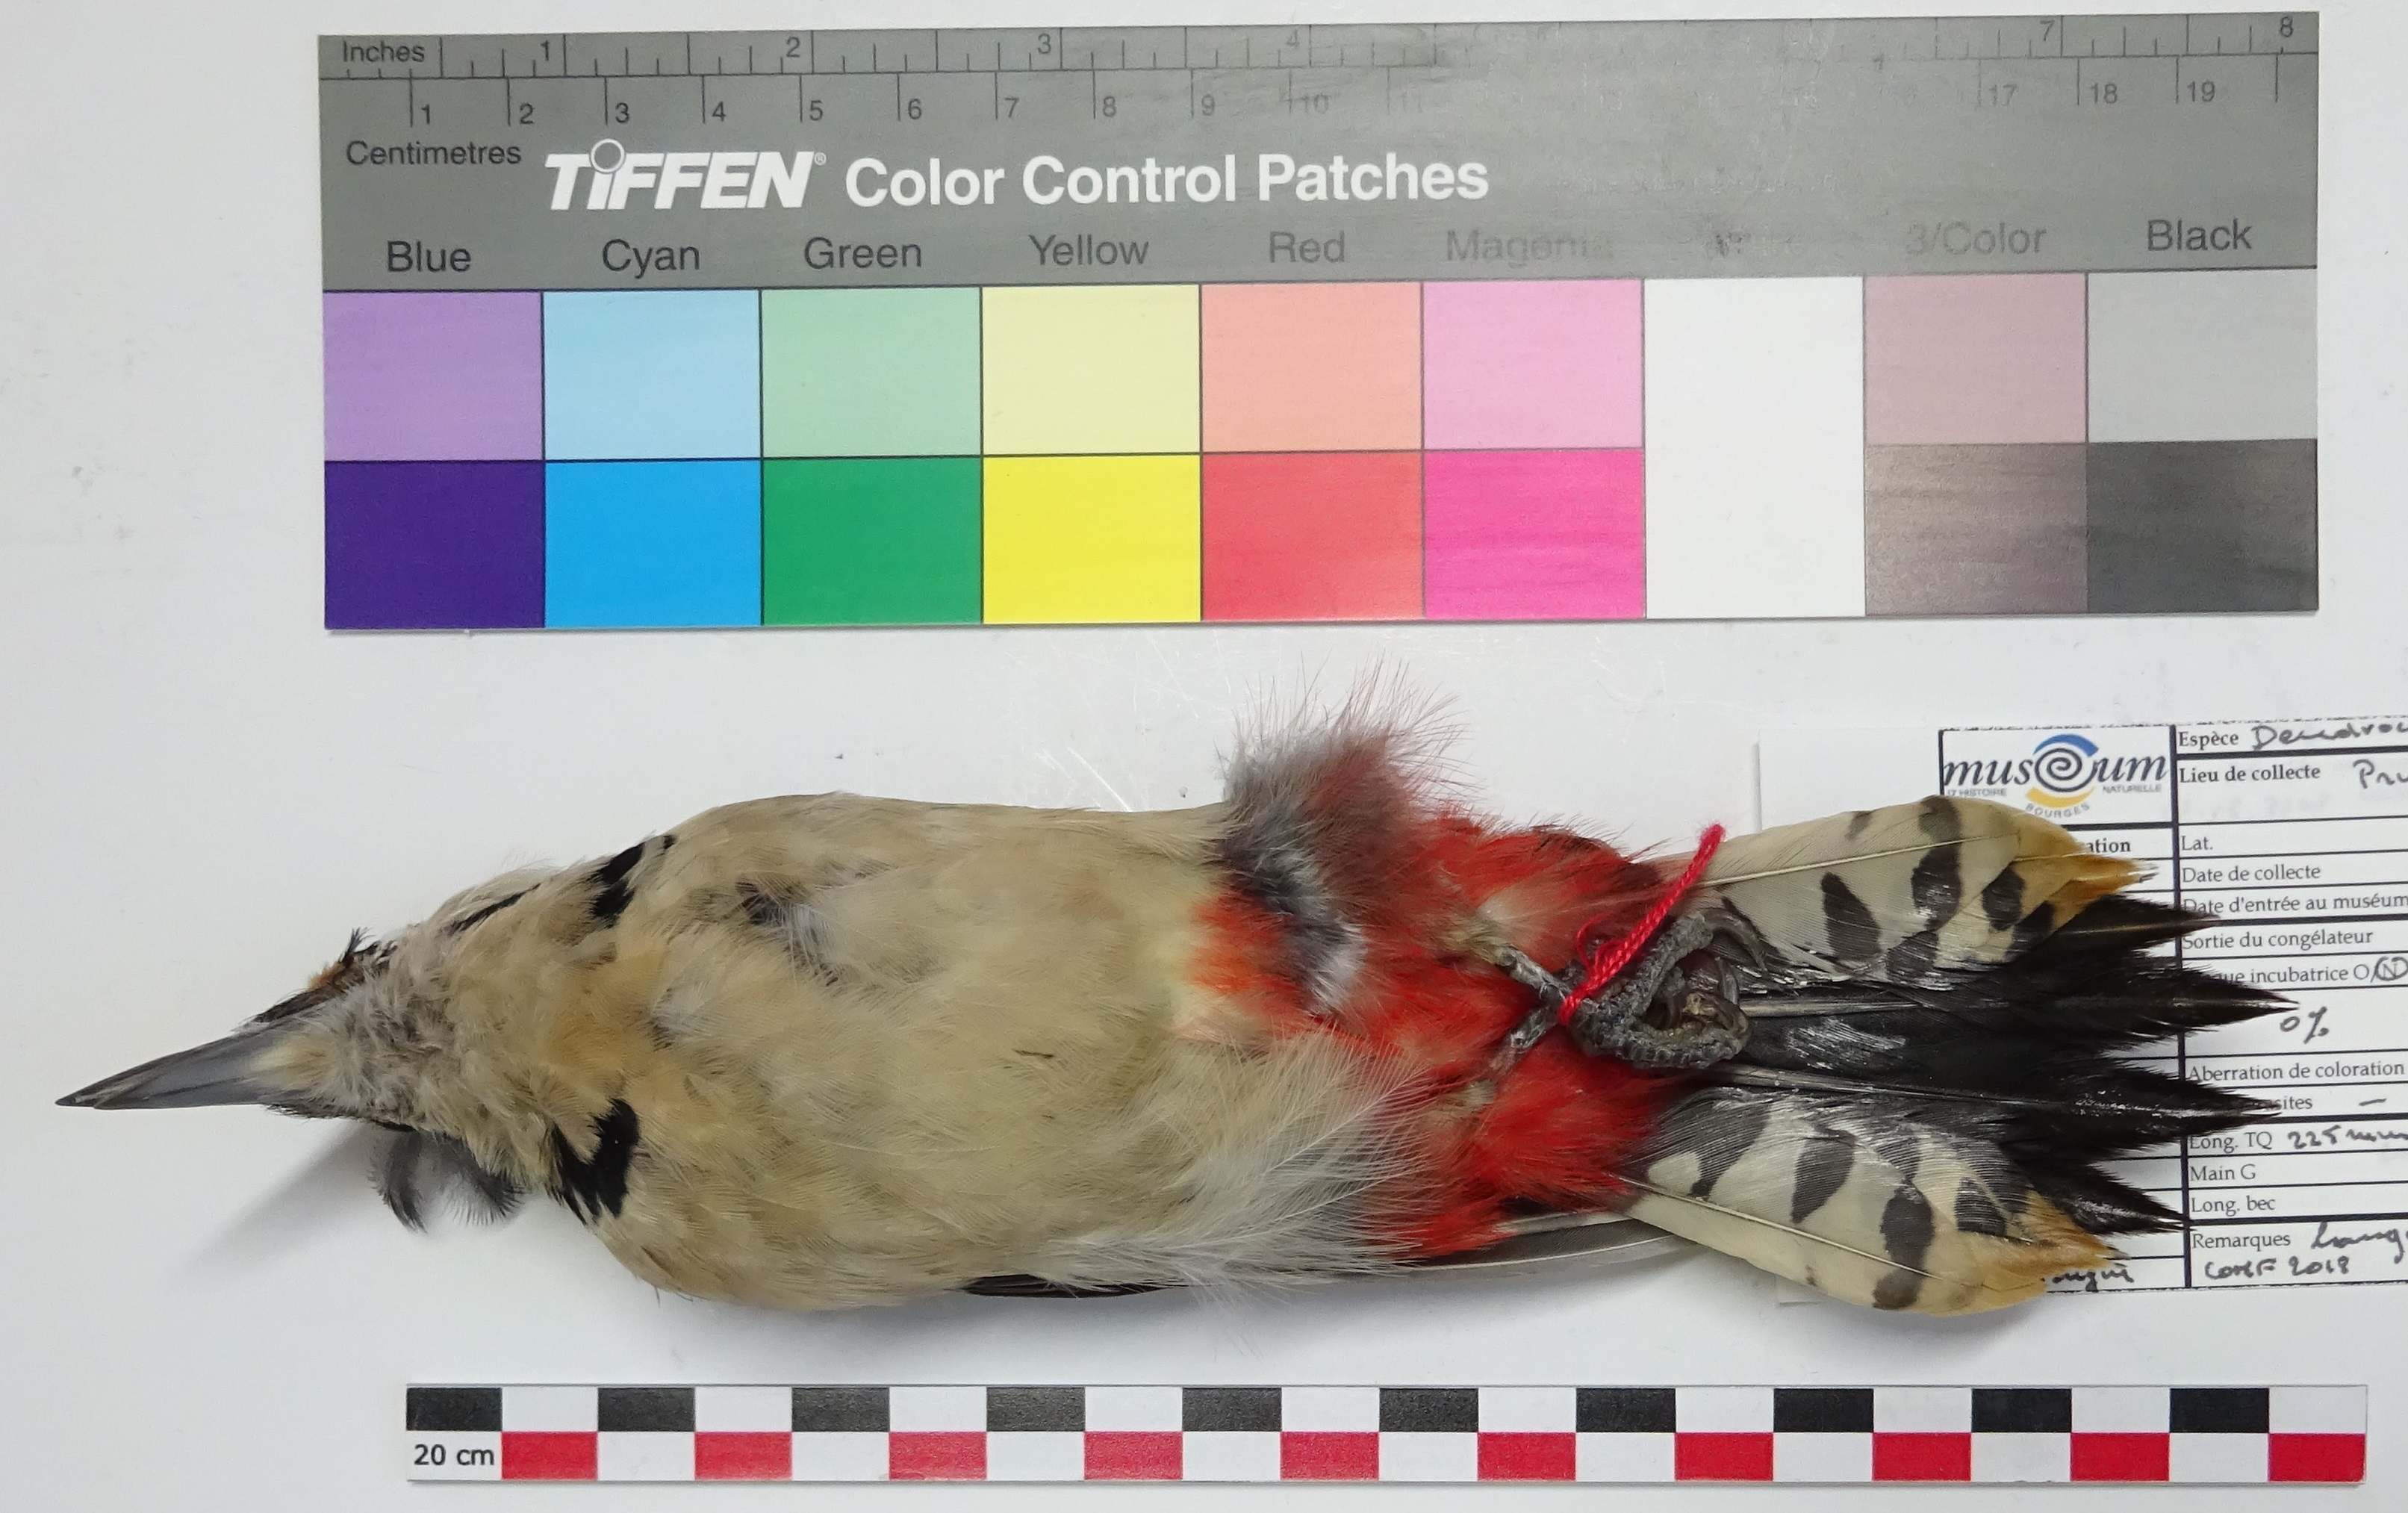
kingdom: Animalia
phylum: Chordata
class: Aves
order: Piciformes
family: Picidae
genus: Dendrocopos
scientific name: Dendrocopos major
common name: Great spotted woodpecker
